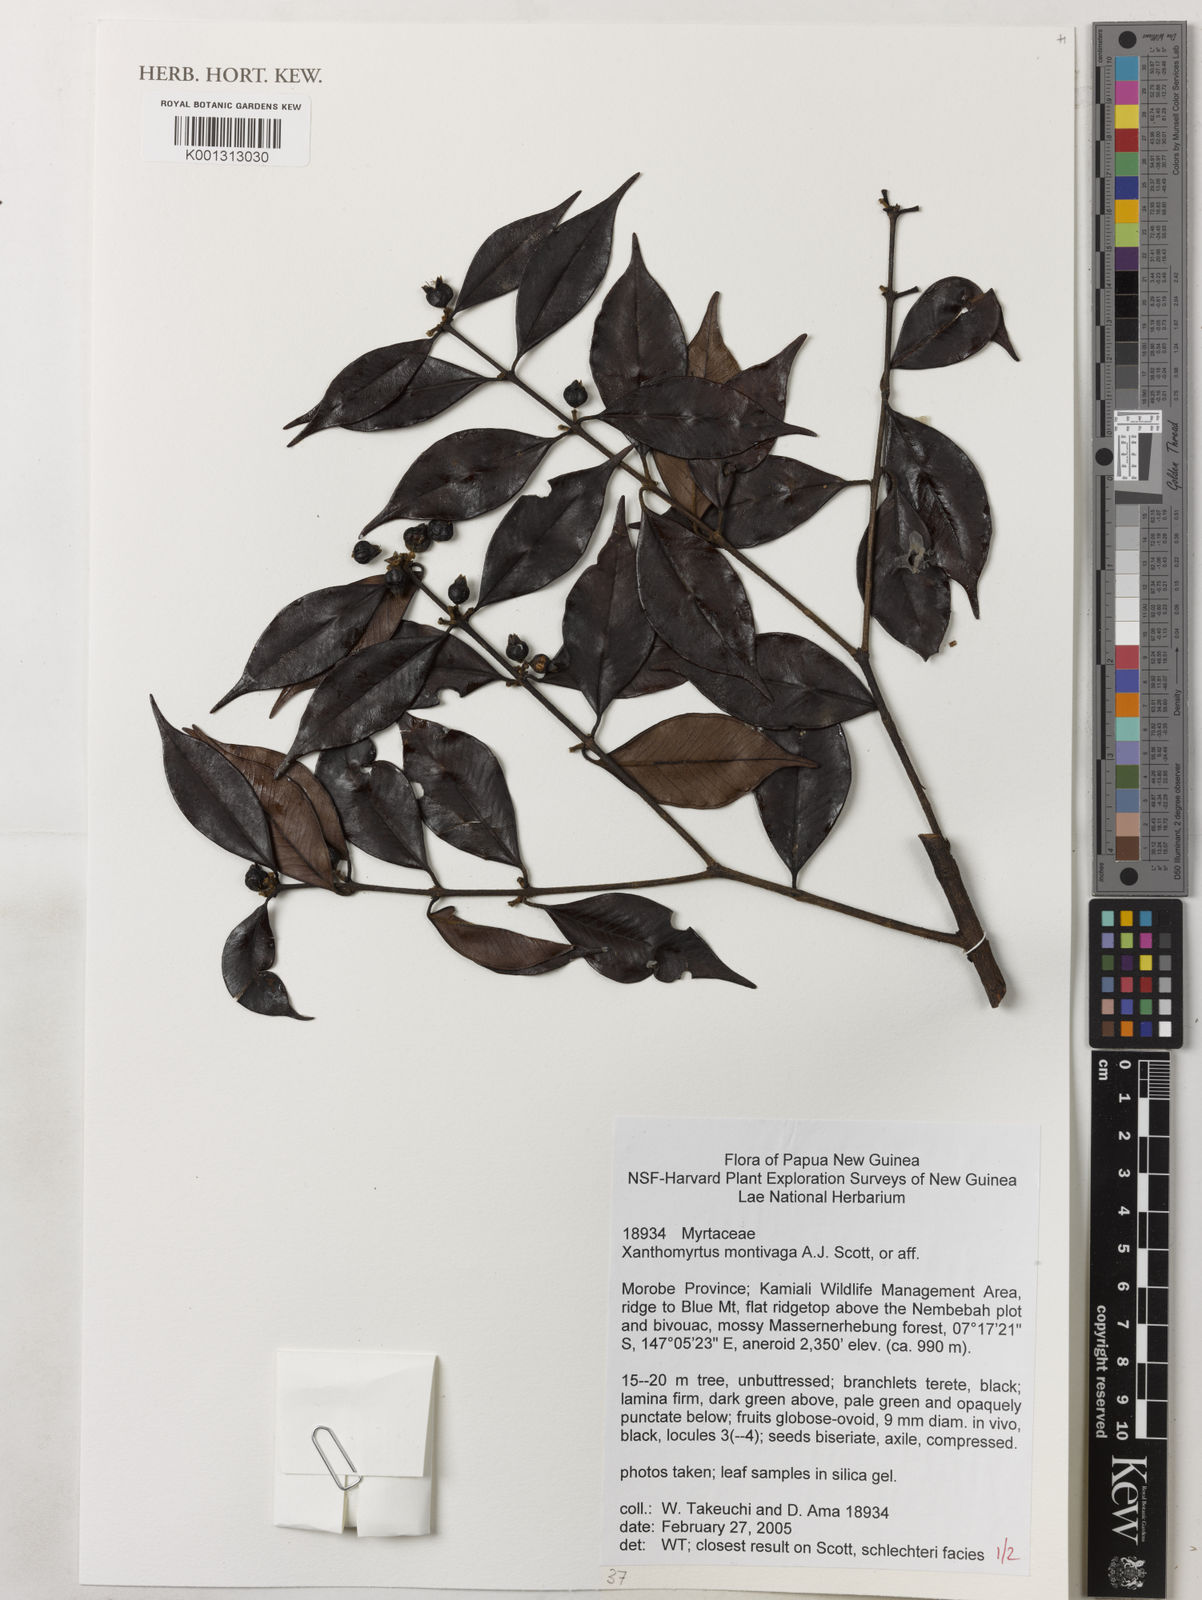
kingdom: Plantae
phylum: Tracheophyta
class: Magnoliopsida
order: Myrtales
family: Myrtaceae
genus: Xanthomyrtus
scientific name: Xanthomyrtus montivaga
